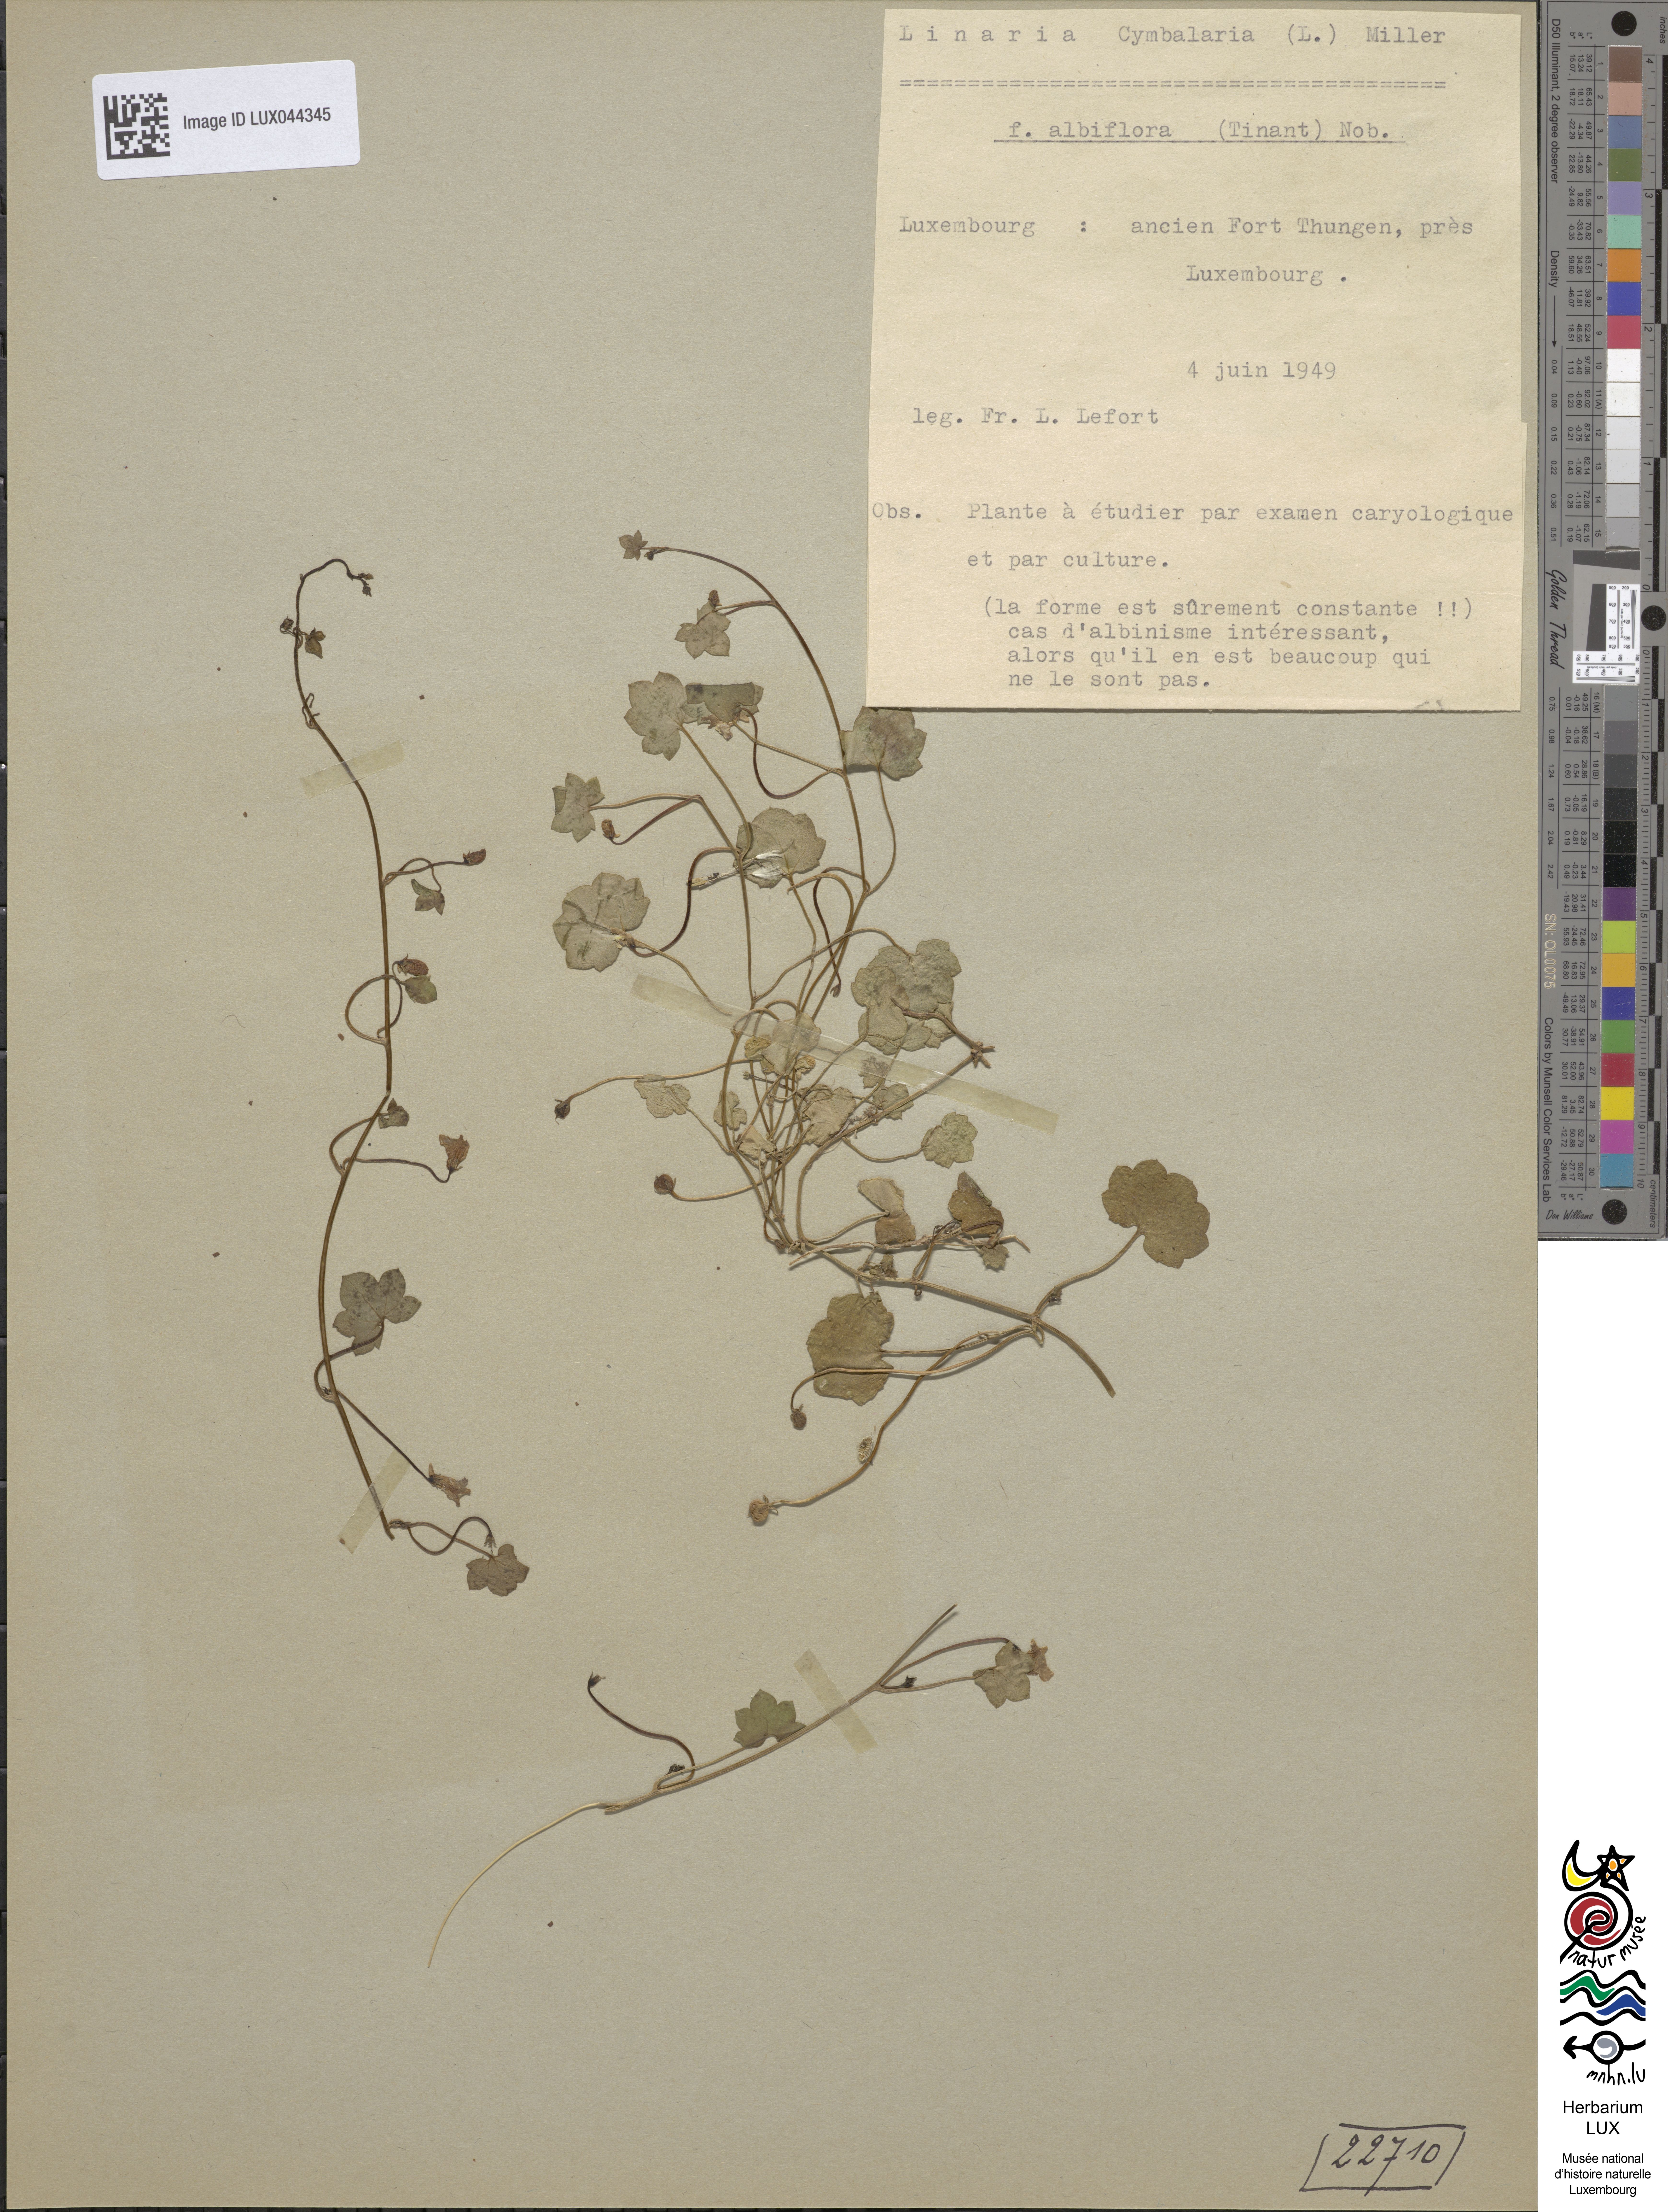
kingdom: Plantae
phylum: Tracheophyta
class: Magnoliopsida
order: Lamiales
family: Plantaginaceae
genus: Cymbalaria
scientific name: Cymbalaria muralis
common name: Ivy-leaved toadflax
